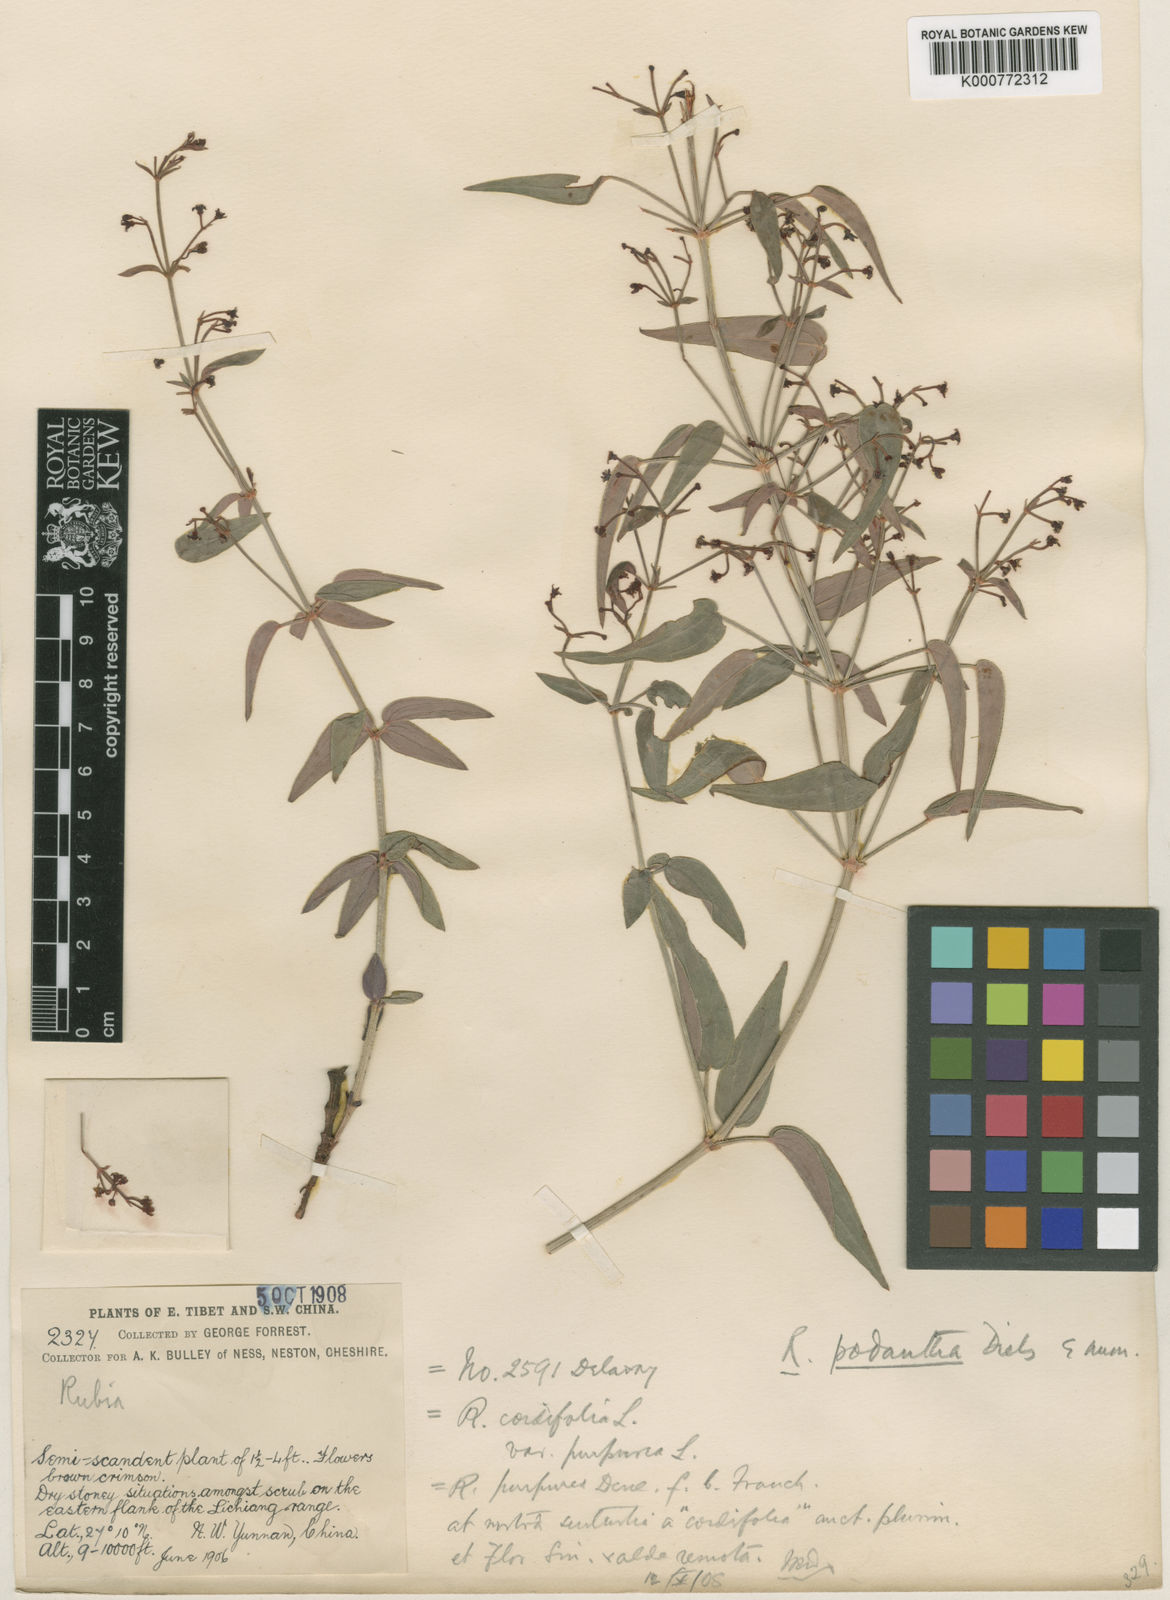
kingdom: Plantae
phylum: Tracheophyta
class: Magnoliopsida
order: Gentianales
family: Rubiaceae
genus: Rubia
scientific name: Rubia podantha
